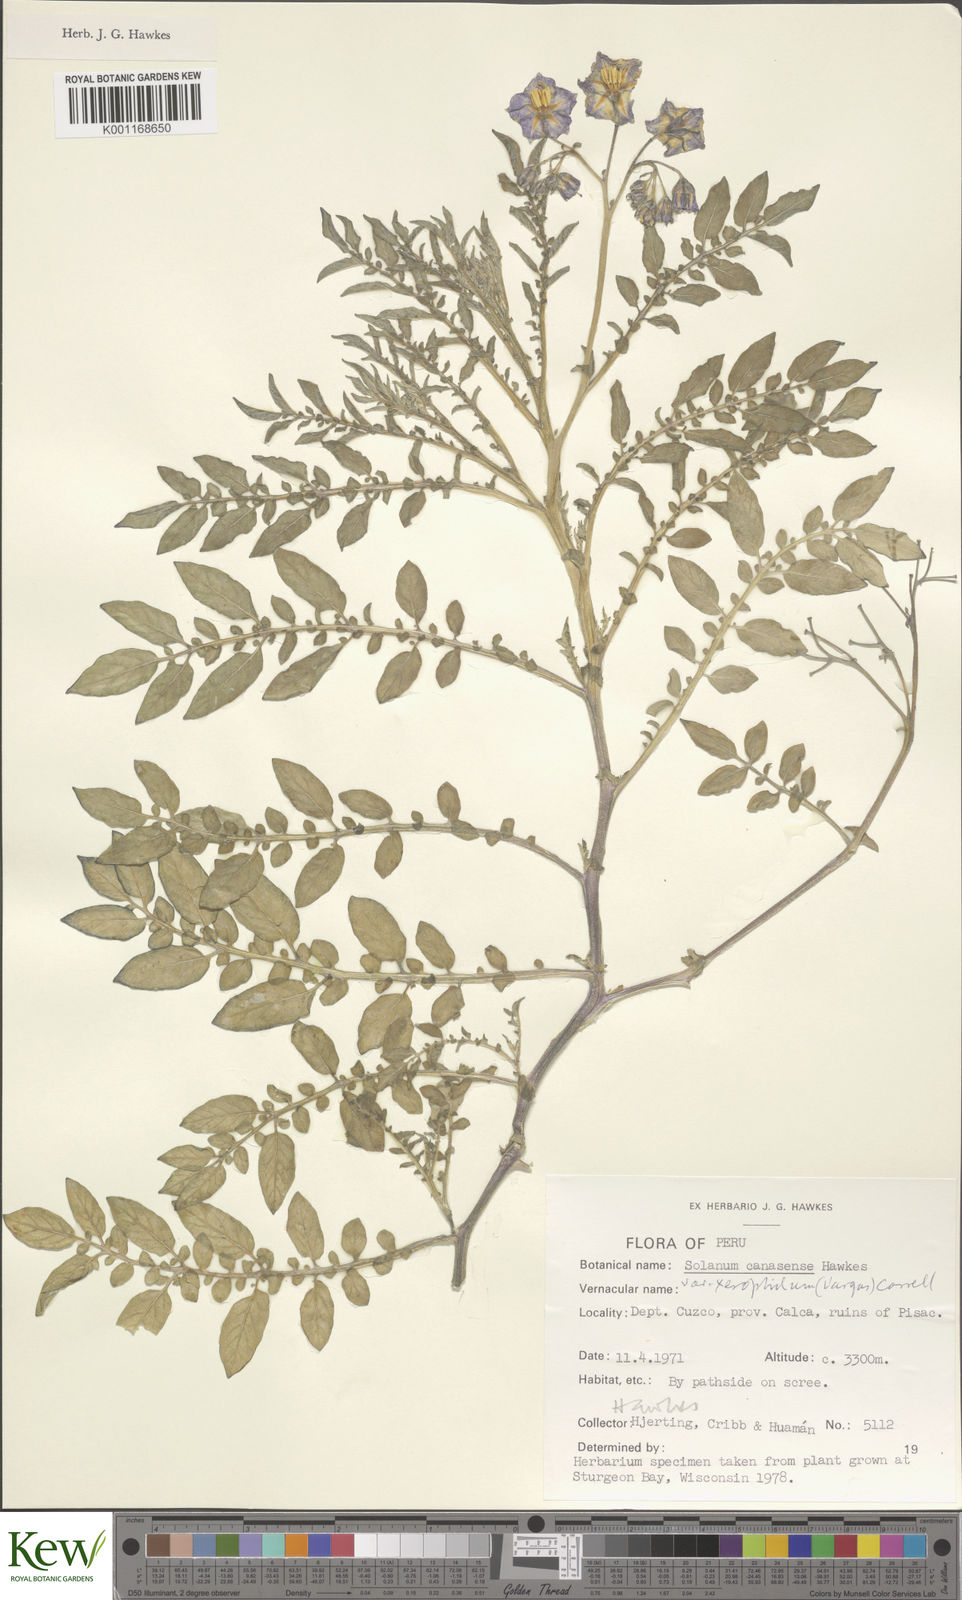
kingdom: Plantae
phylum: Tracheophyta
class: Magnoliopsida
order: Solanales
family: Solanaceae
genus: Solanum
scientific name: Solanum candolleanum
